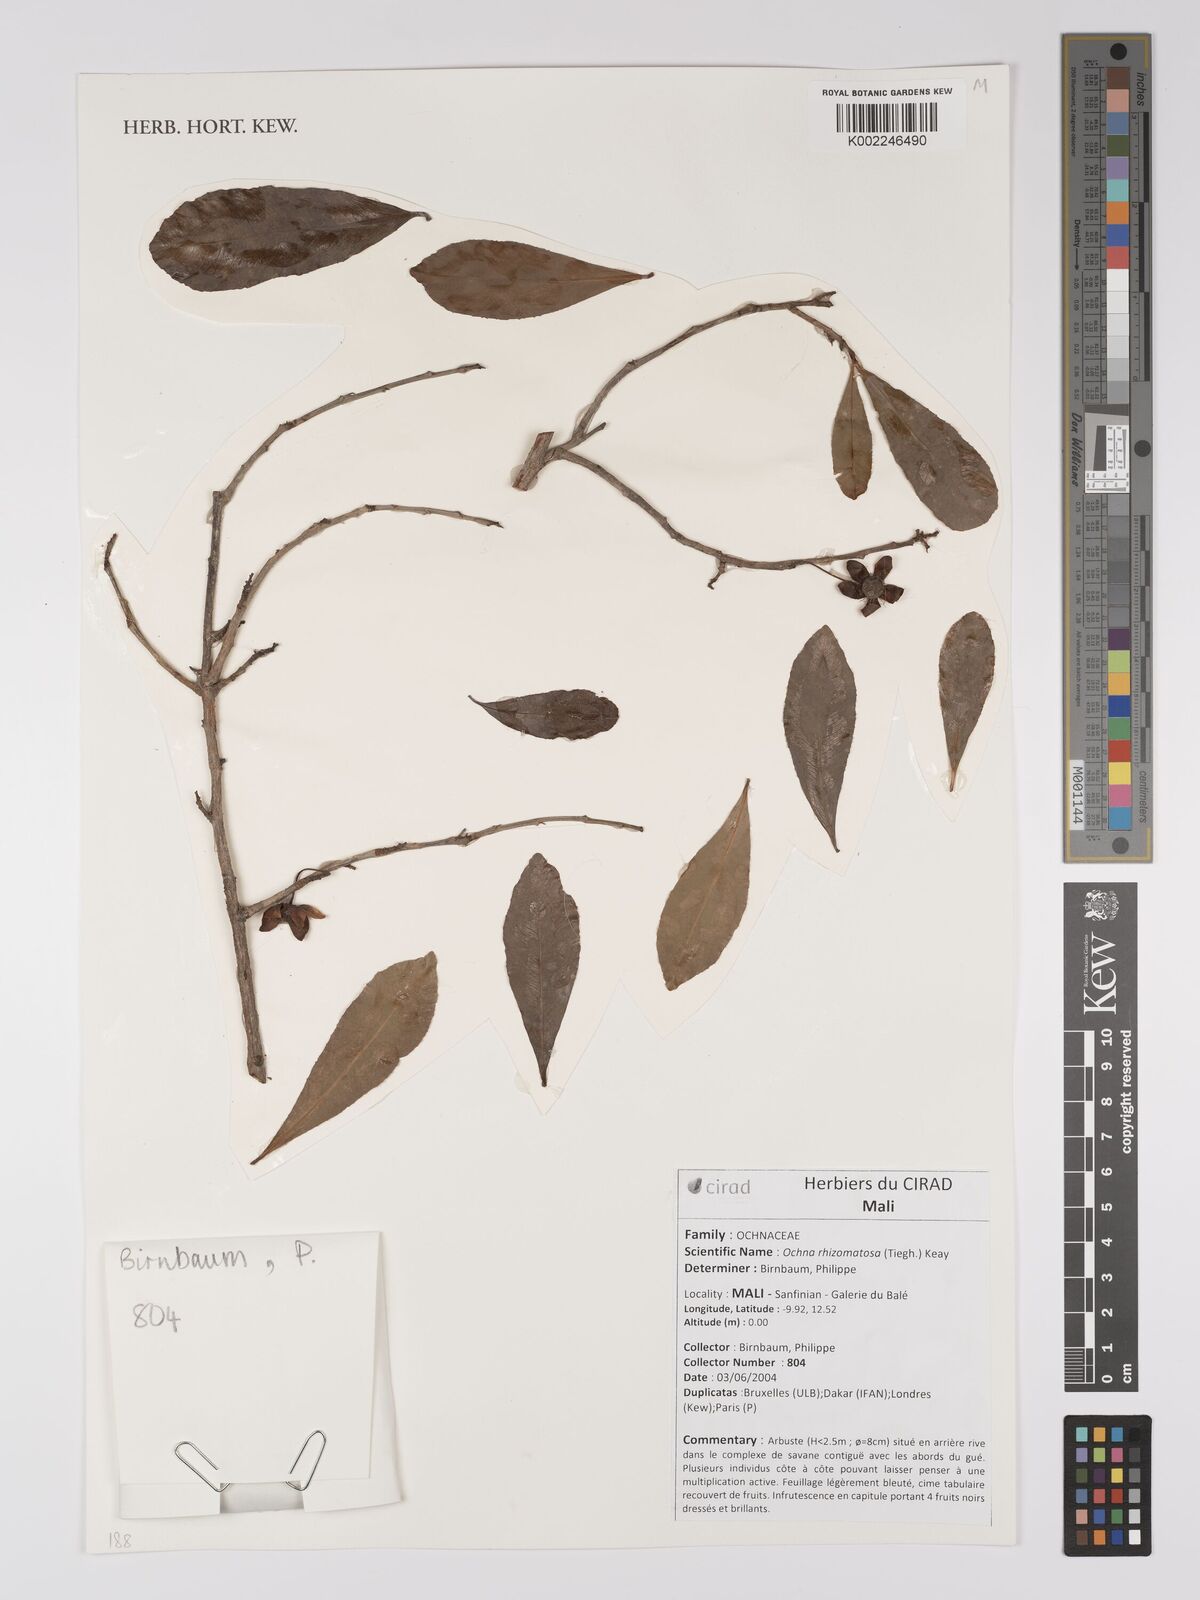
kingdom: Plantae
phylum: Tracheophyta
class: Magnoliopsida
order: Malpighiales
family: Ochnaceae
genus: Ochna
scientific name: Ochna rhizomatosa
